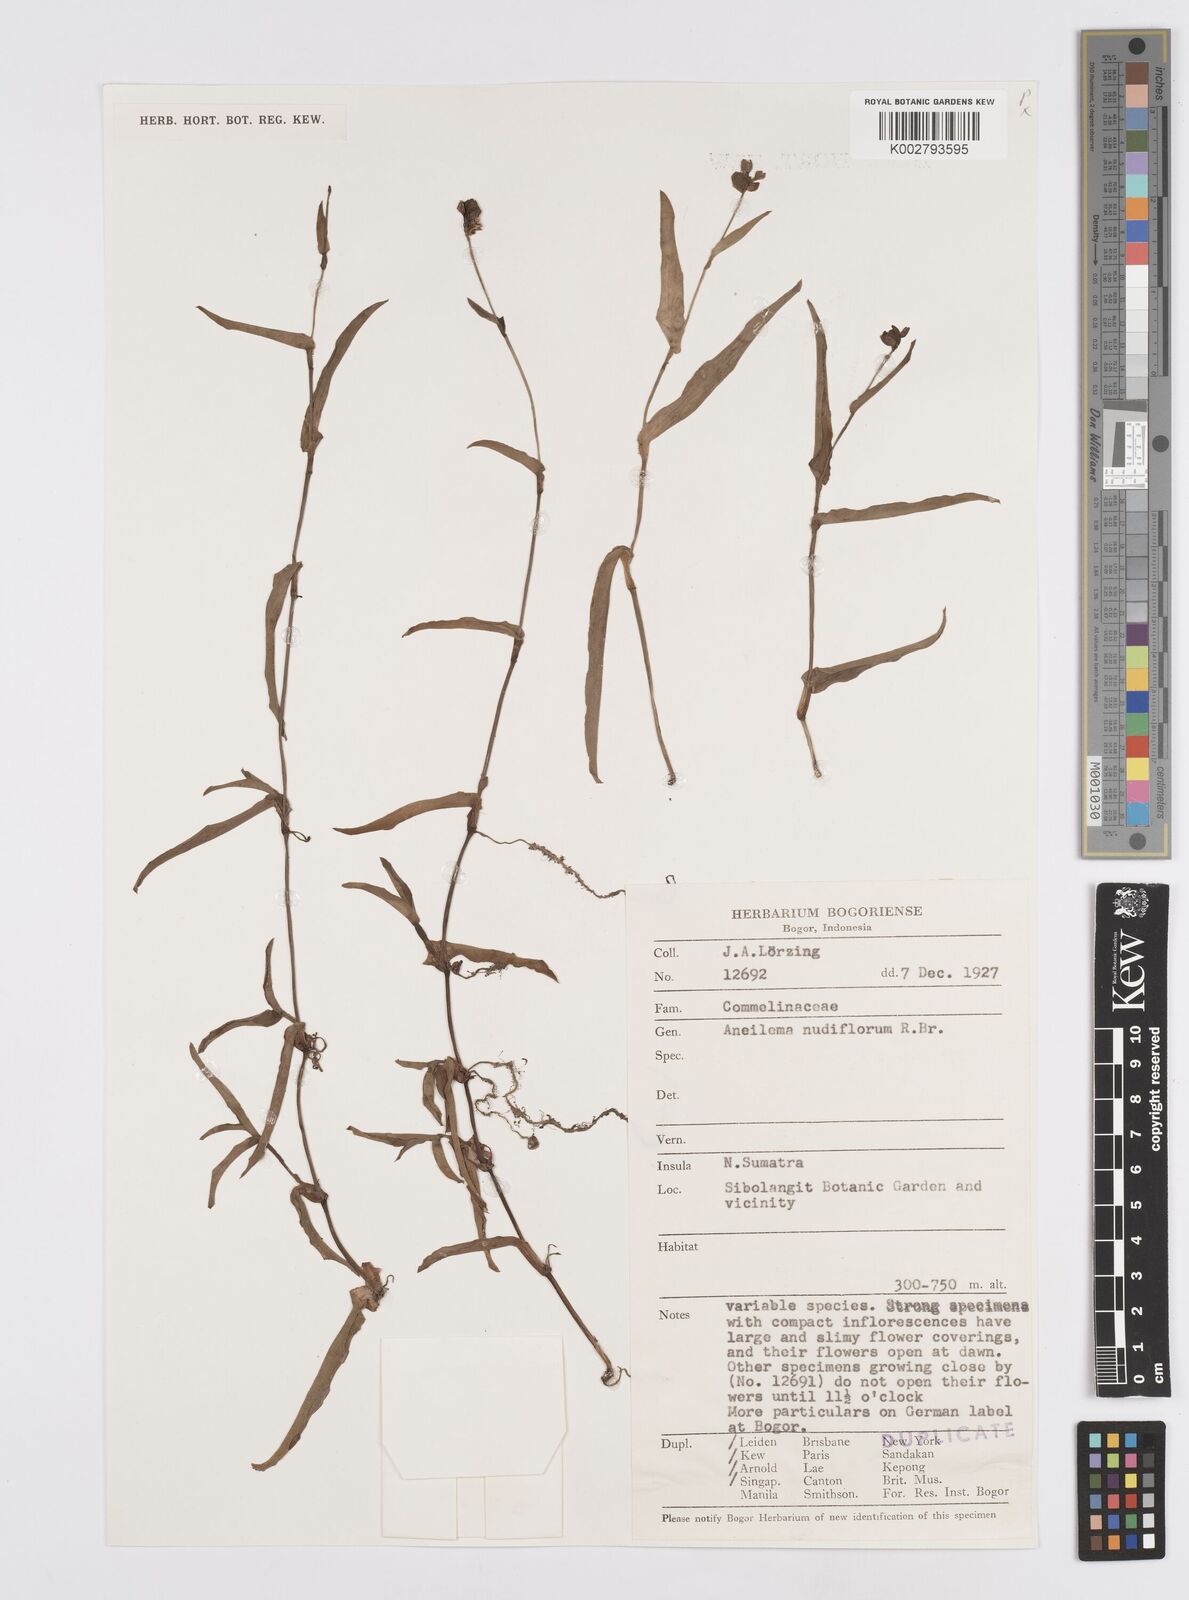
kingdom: Plantae
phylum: Tracheophyta
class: Liliopsida
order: Commelinales
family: Commelinaceae
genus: Murdannia
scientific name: Murdannia nudiflora
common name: Nakedstem dewflower
